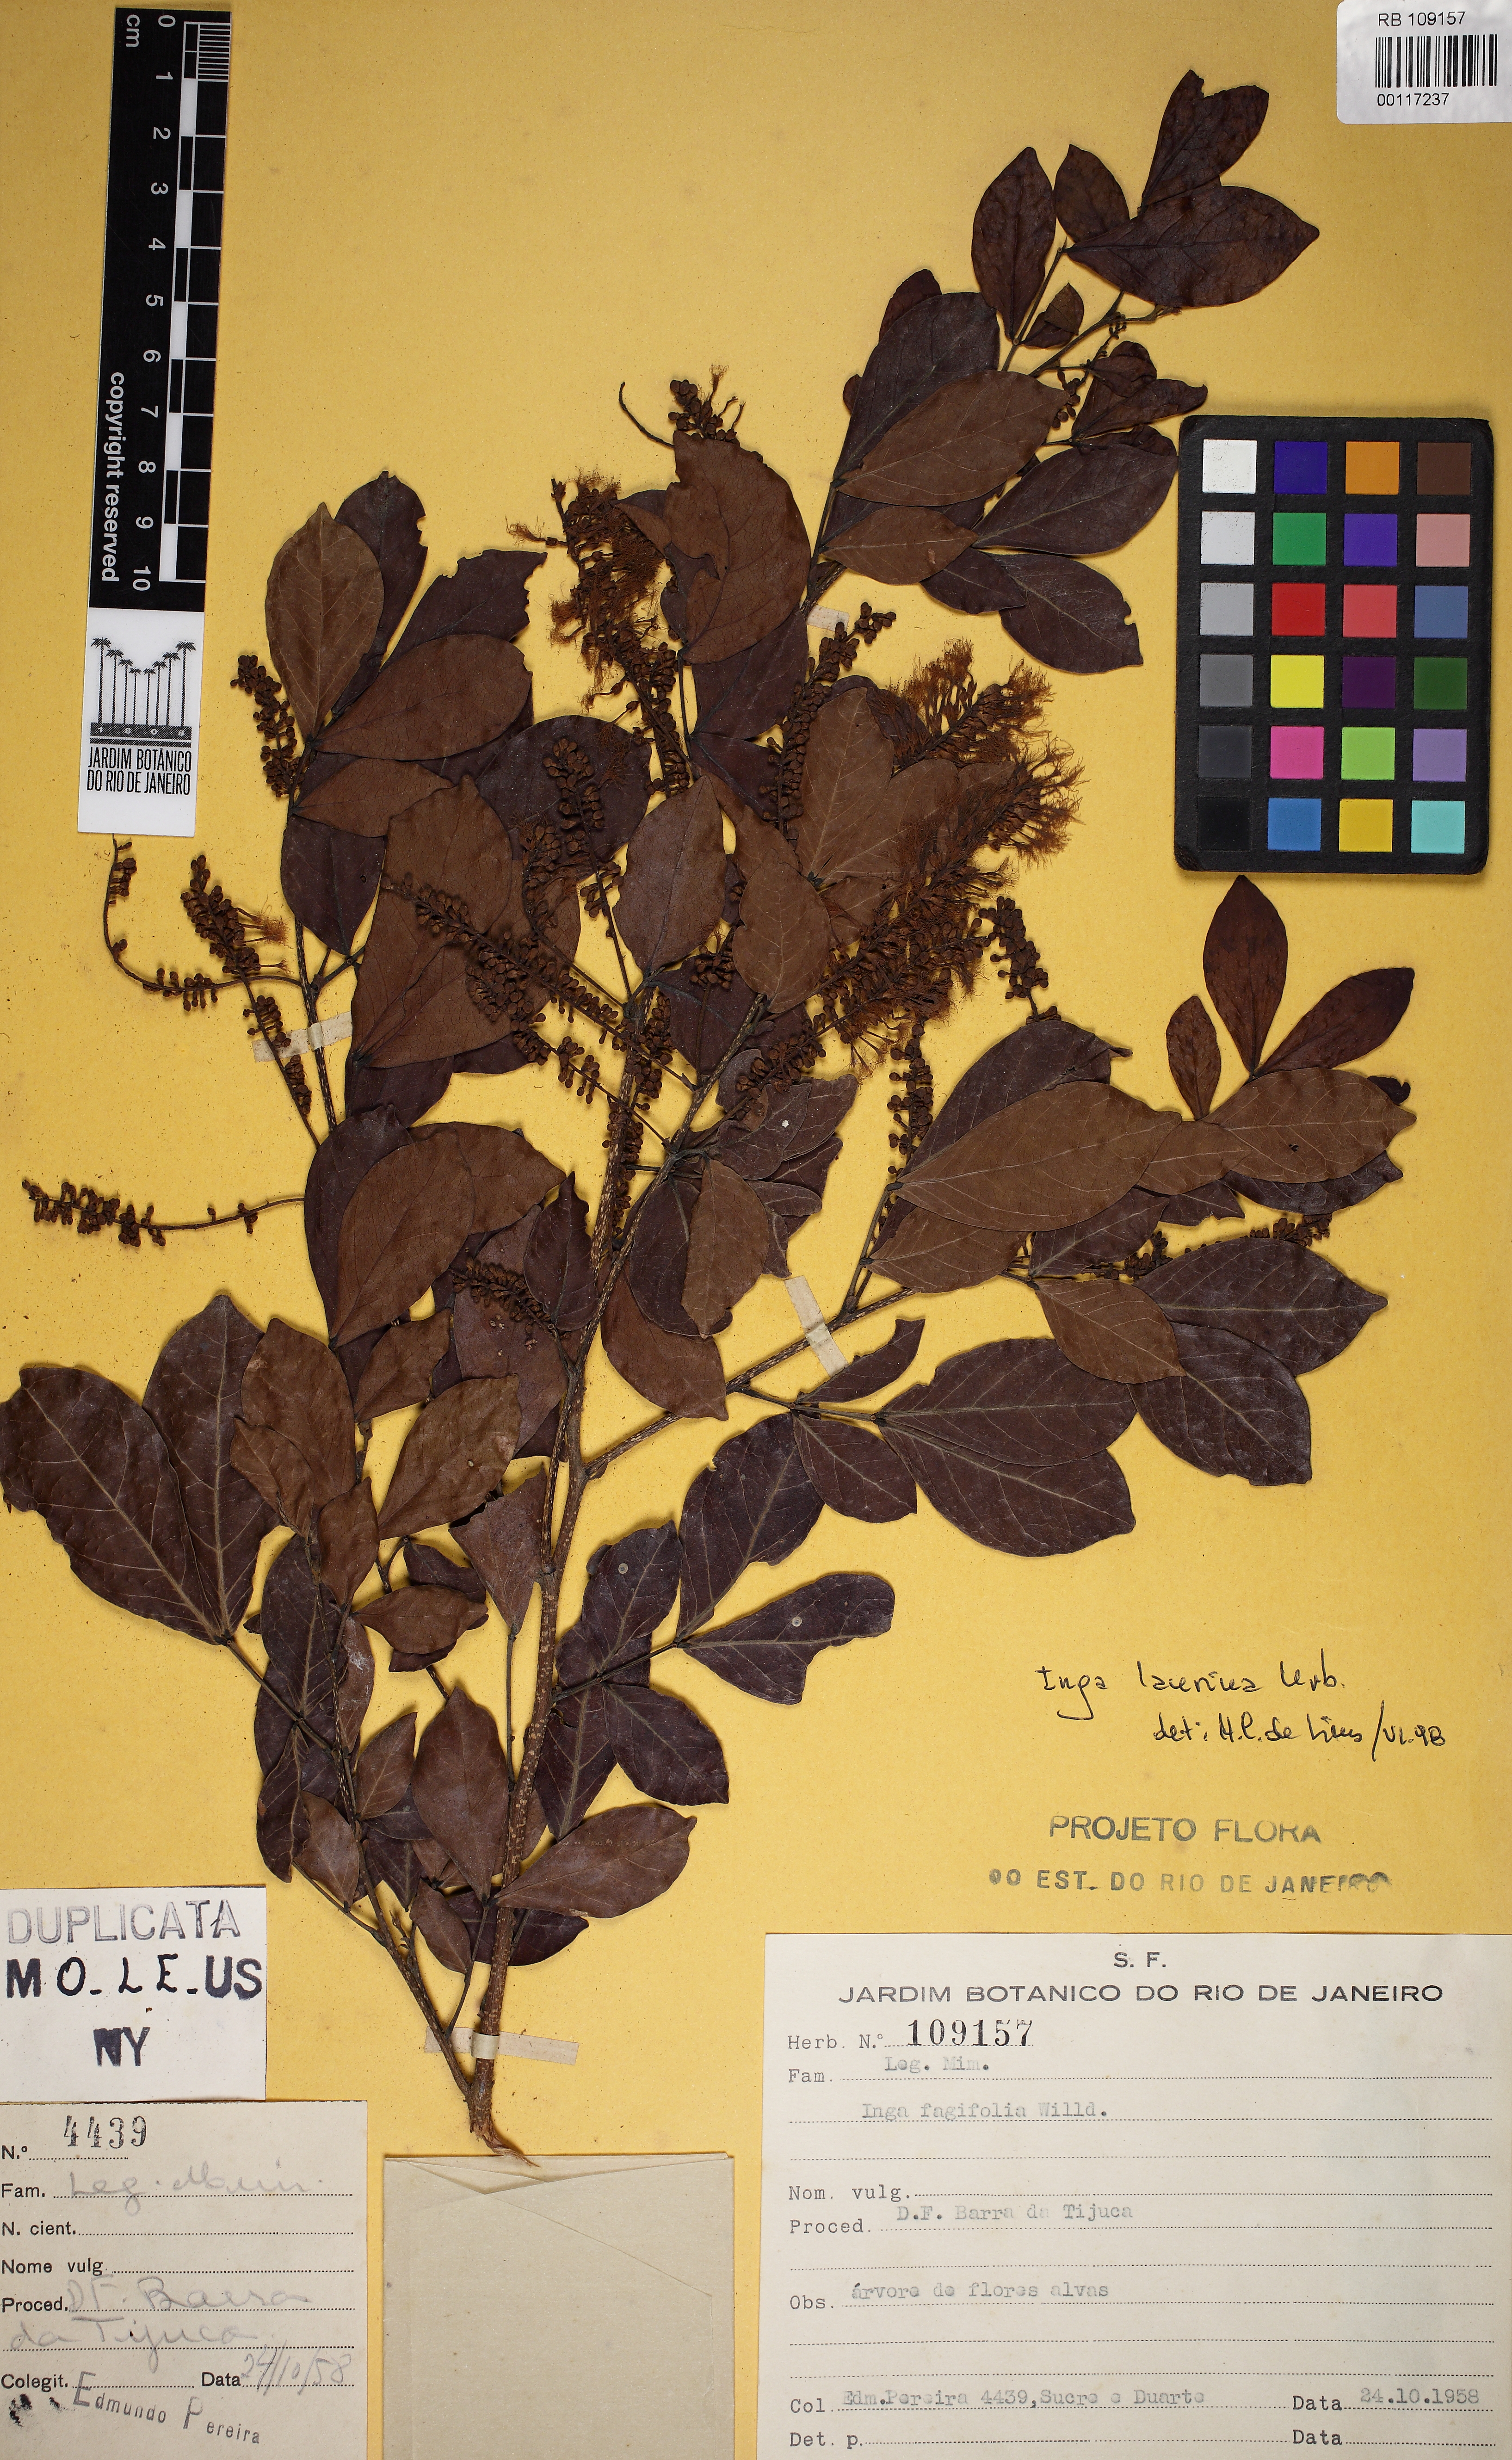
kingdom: Plantae
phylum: Tracheophyta
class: Magnoliopsida
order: Fabales
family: Fabaceae
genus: Inga
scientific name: Inga laurina
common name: Red wood
